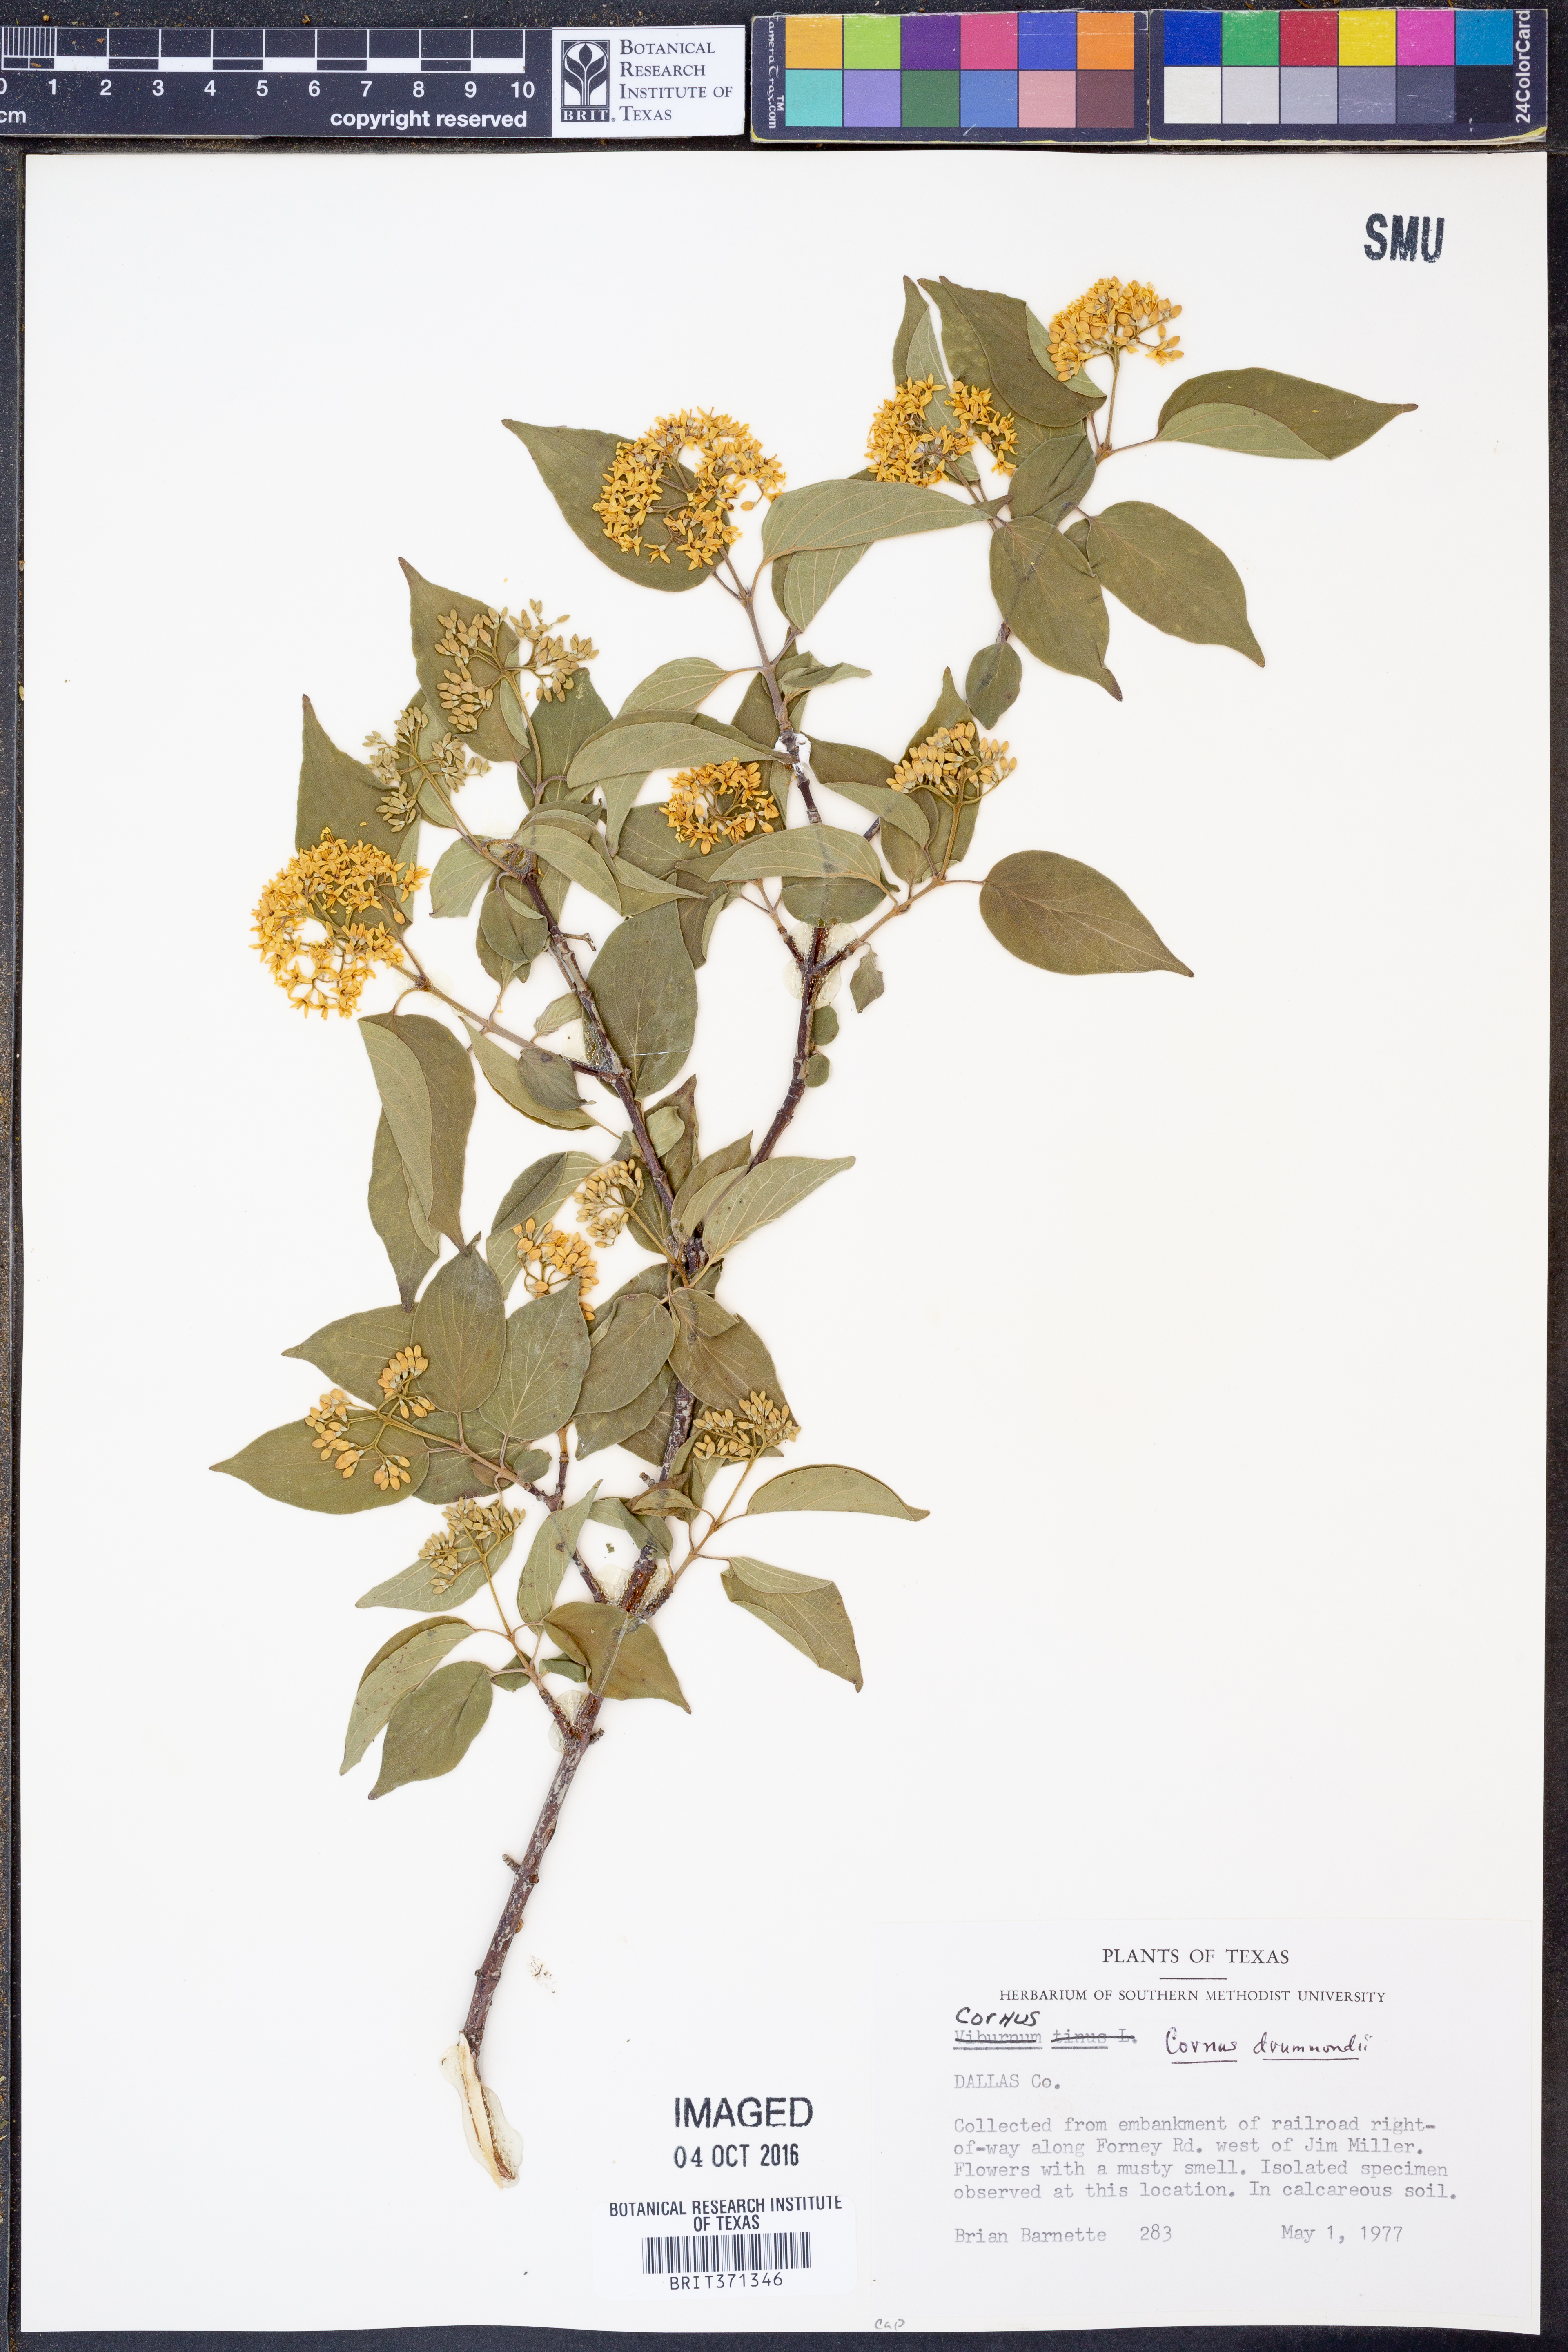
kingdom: Plantae
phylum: Tracheophyta
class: Magnoliopsida
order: Cornales
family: Cornaceae
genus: Cornus
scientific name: Cornus drummondii
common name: Rough-leaf dogwood
